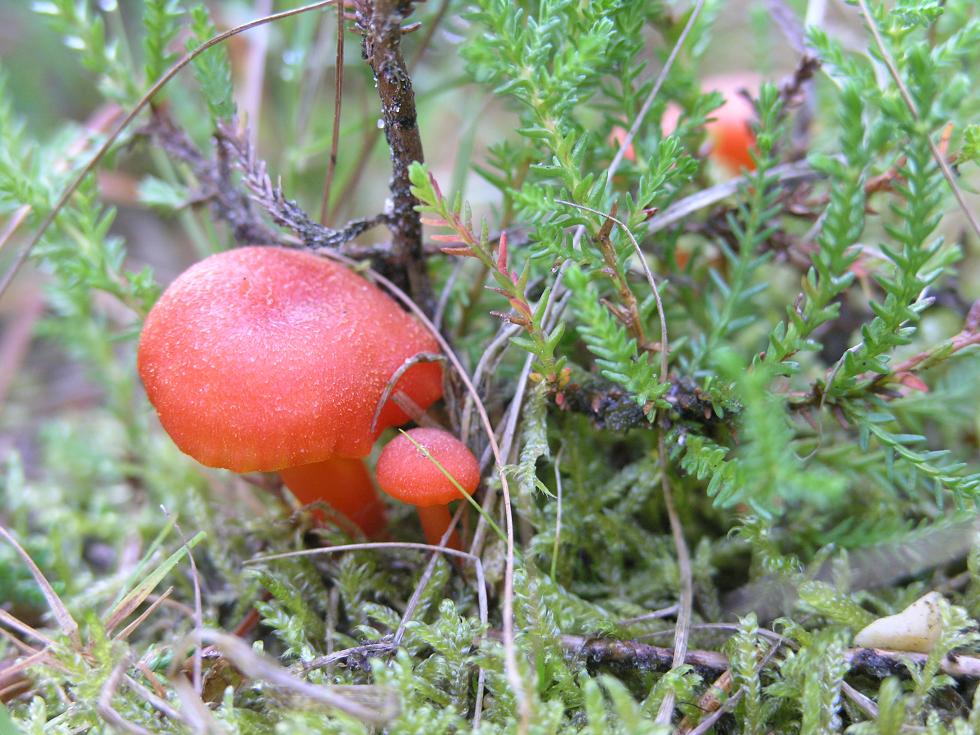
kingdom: Fungi
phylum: Basidiomycota
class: Agaricomycetes
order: Agaricales
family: Hygrophoraceae
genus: Hygrocybe
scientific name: Hygrocybe miniata
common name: mønje-vokshat
